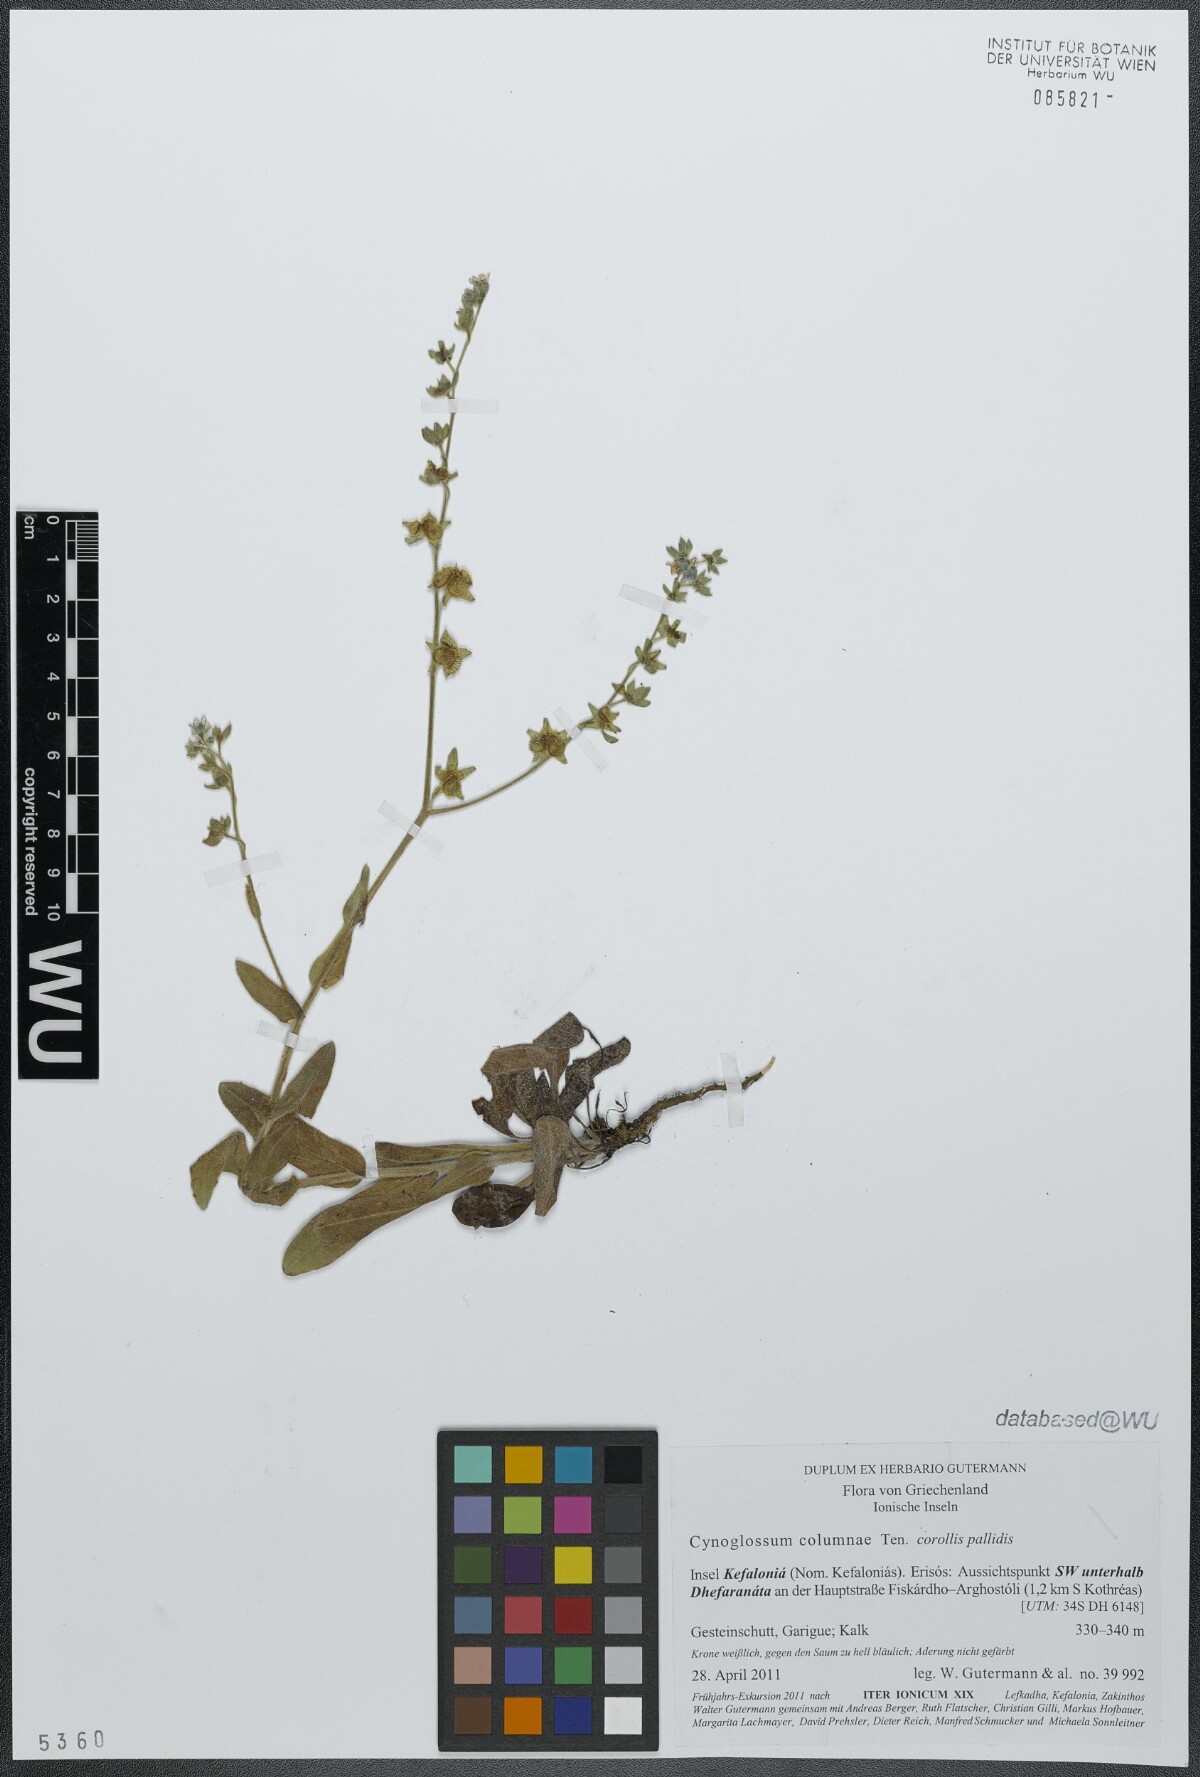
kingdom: Plantae
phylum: Tracheophyta
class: Magnoliopsida
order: Boraginales
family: Boraginaceae
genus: Rindera
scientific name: Rindera columnae
